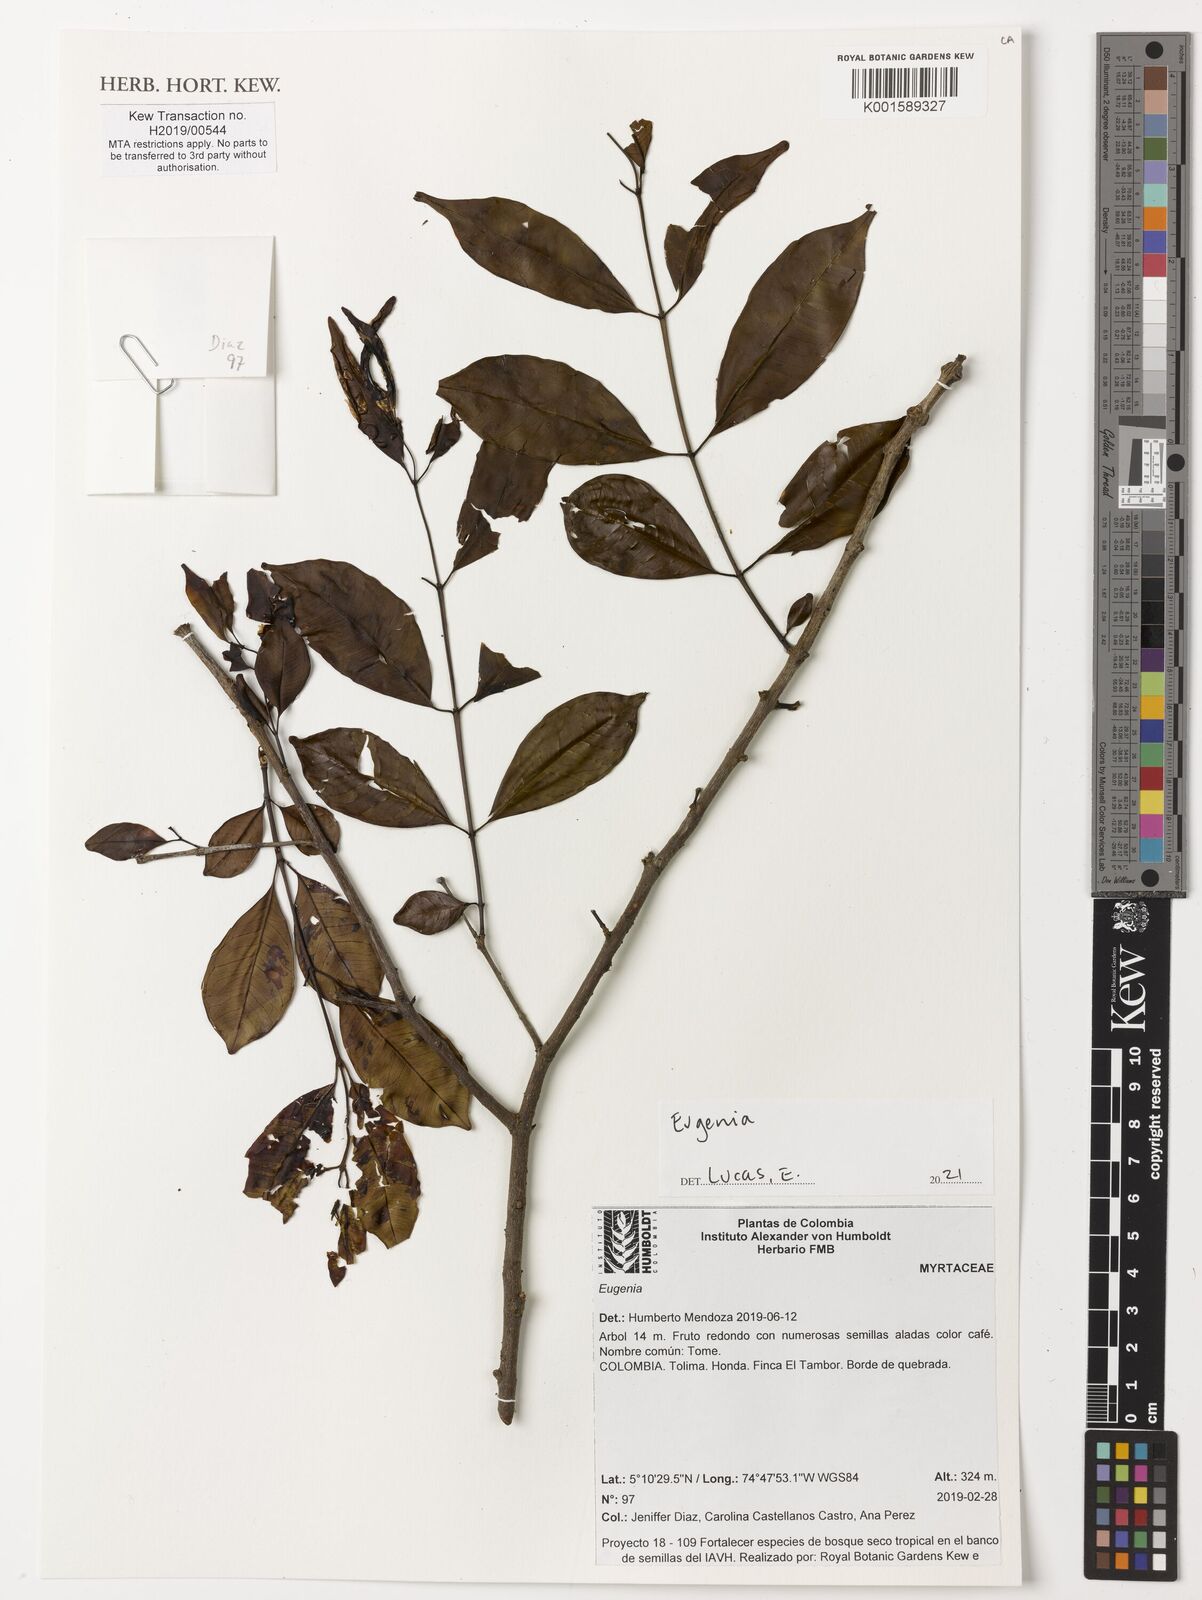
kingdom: Plantae
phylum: Tracheophyta
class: Magnoliopsida
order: Myrtales
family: Myrtaceae
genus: Eugenia
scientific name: Eugenia
